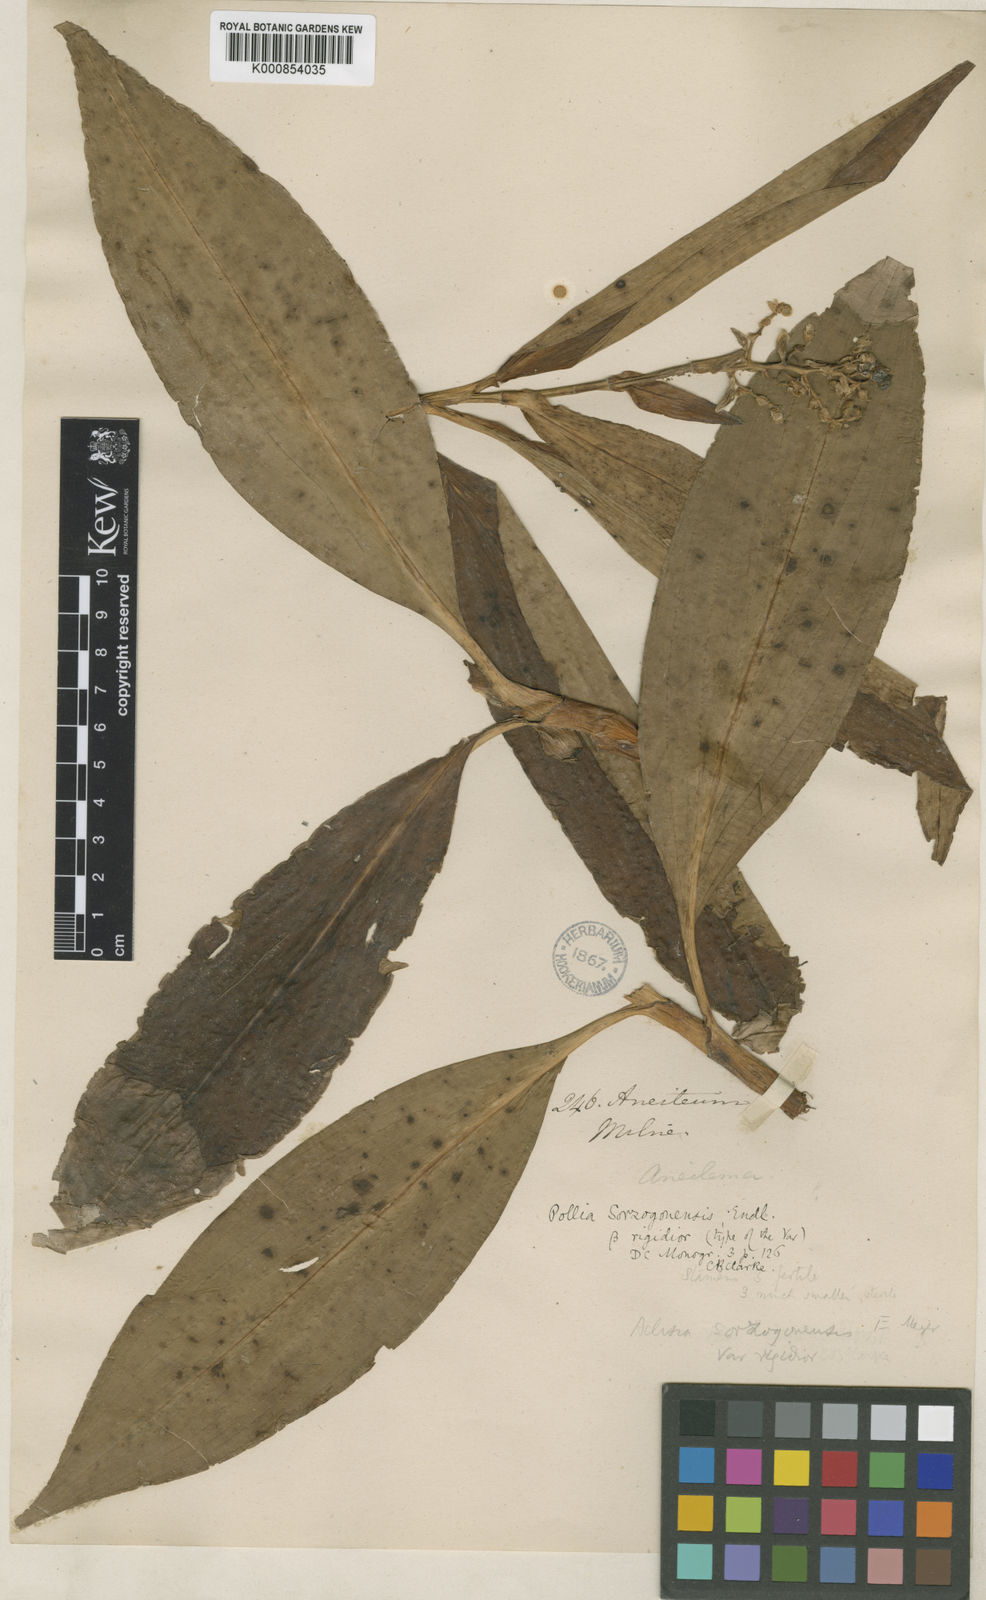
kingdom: Plantae
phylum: Tracheophyta
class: Liliopsida
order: Commelinales
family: Commelinaceae
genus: Pollia
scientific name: Pollia secundiflora
